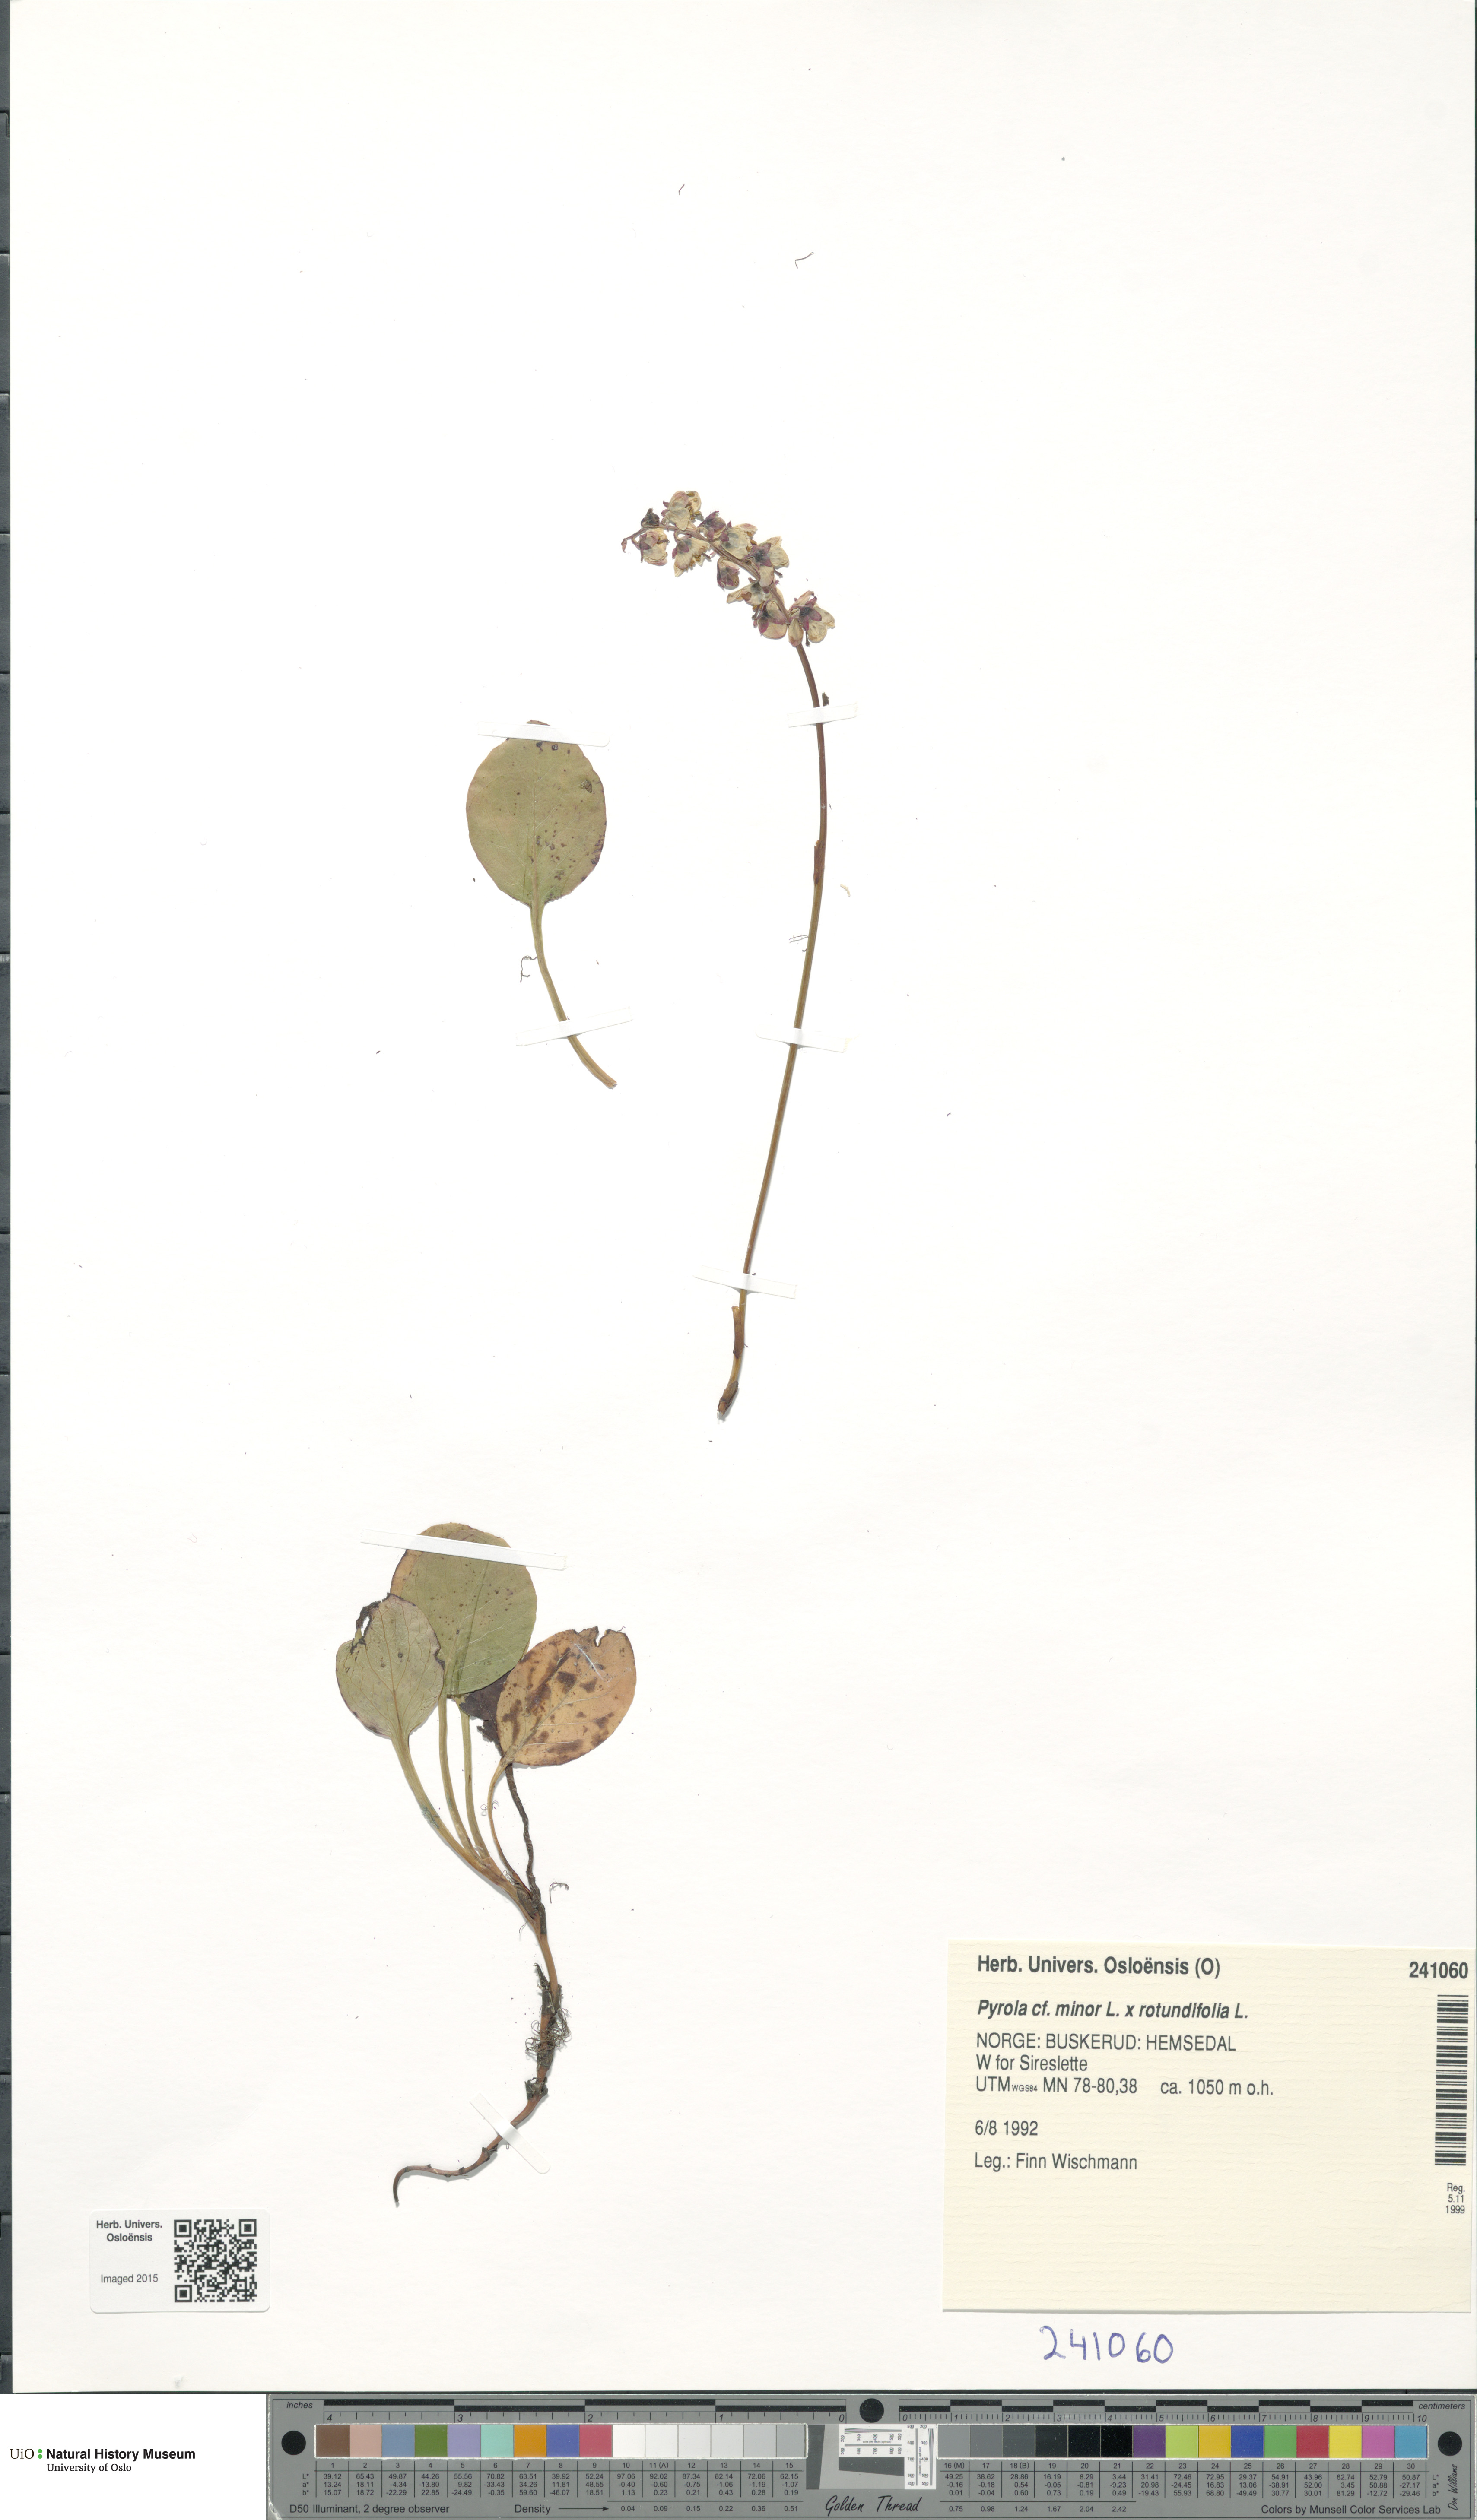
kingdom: Plantae
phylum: Tracheophyta
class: Magnoliopsida
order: Ericales
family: Ericaceae
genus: Pyrola
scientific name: Pyrola
